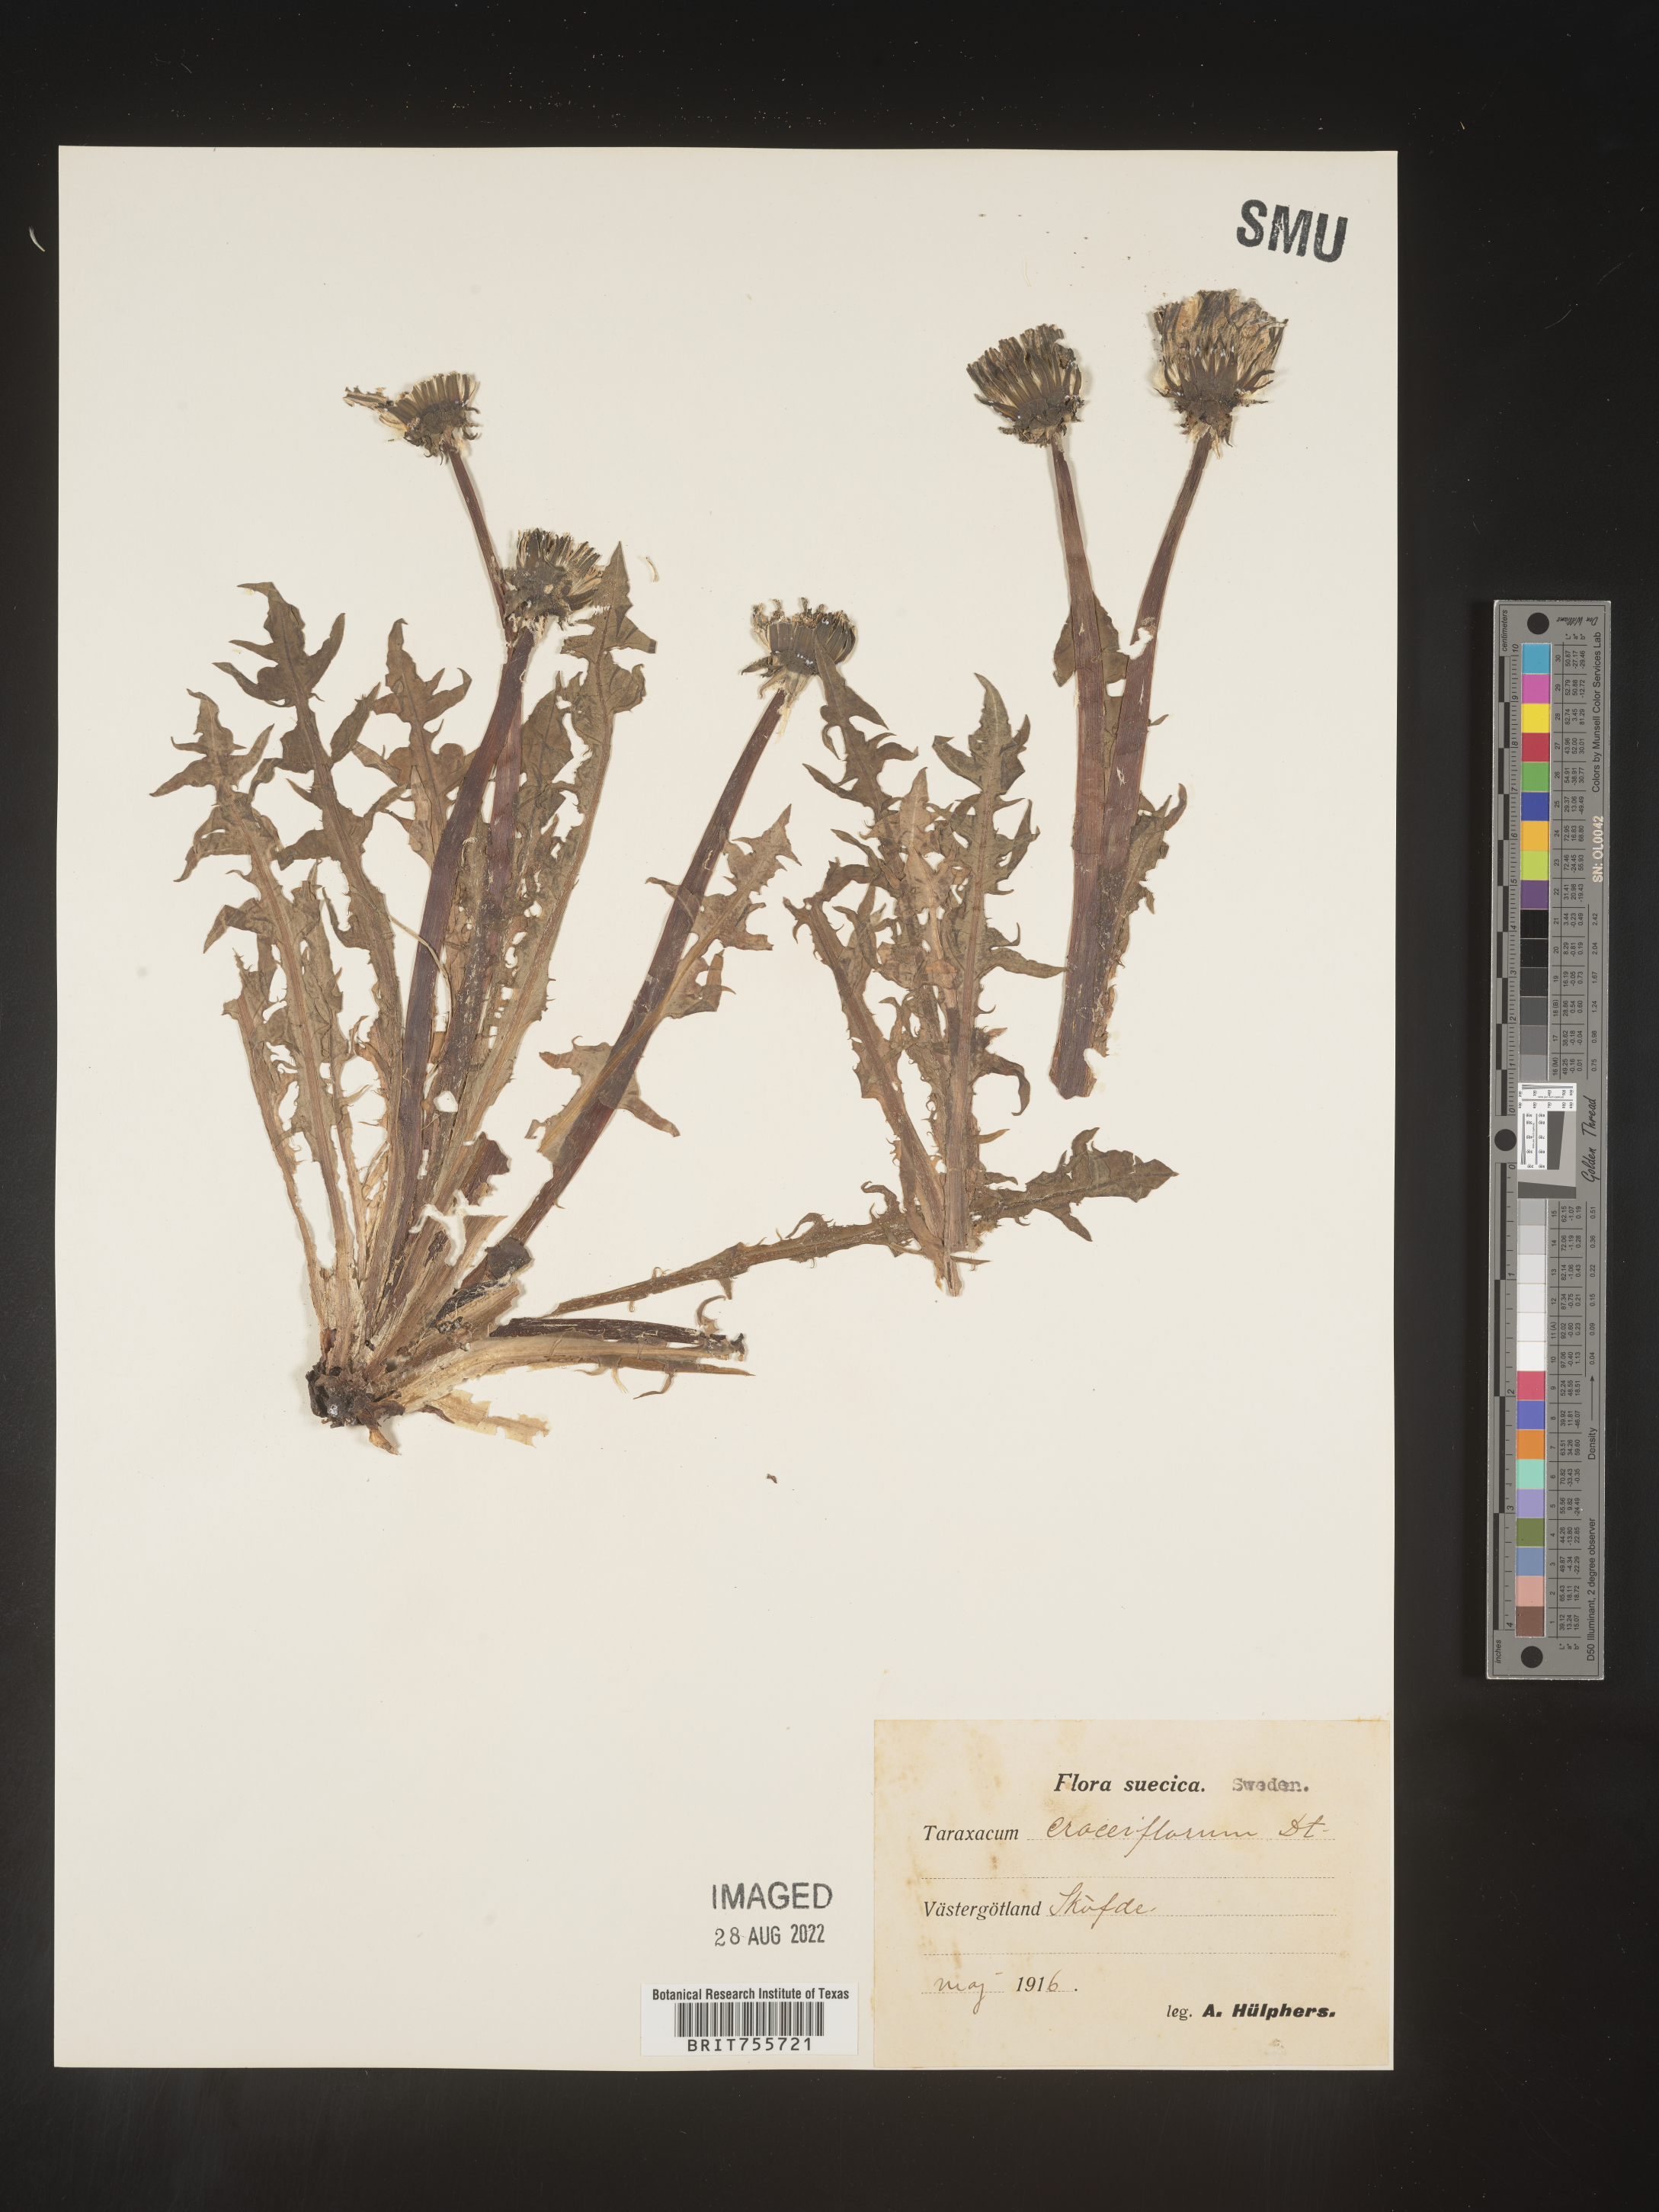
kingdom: Plantae
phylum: Tracheophyta
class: Magnoliopsida
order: Asterales
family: Asteraceae
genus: Taraxacum
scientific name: Taraxacum
